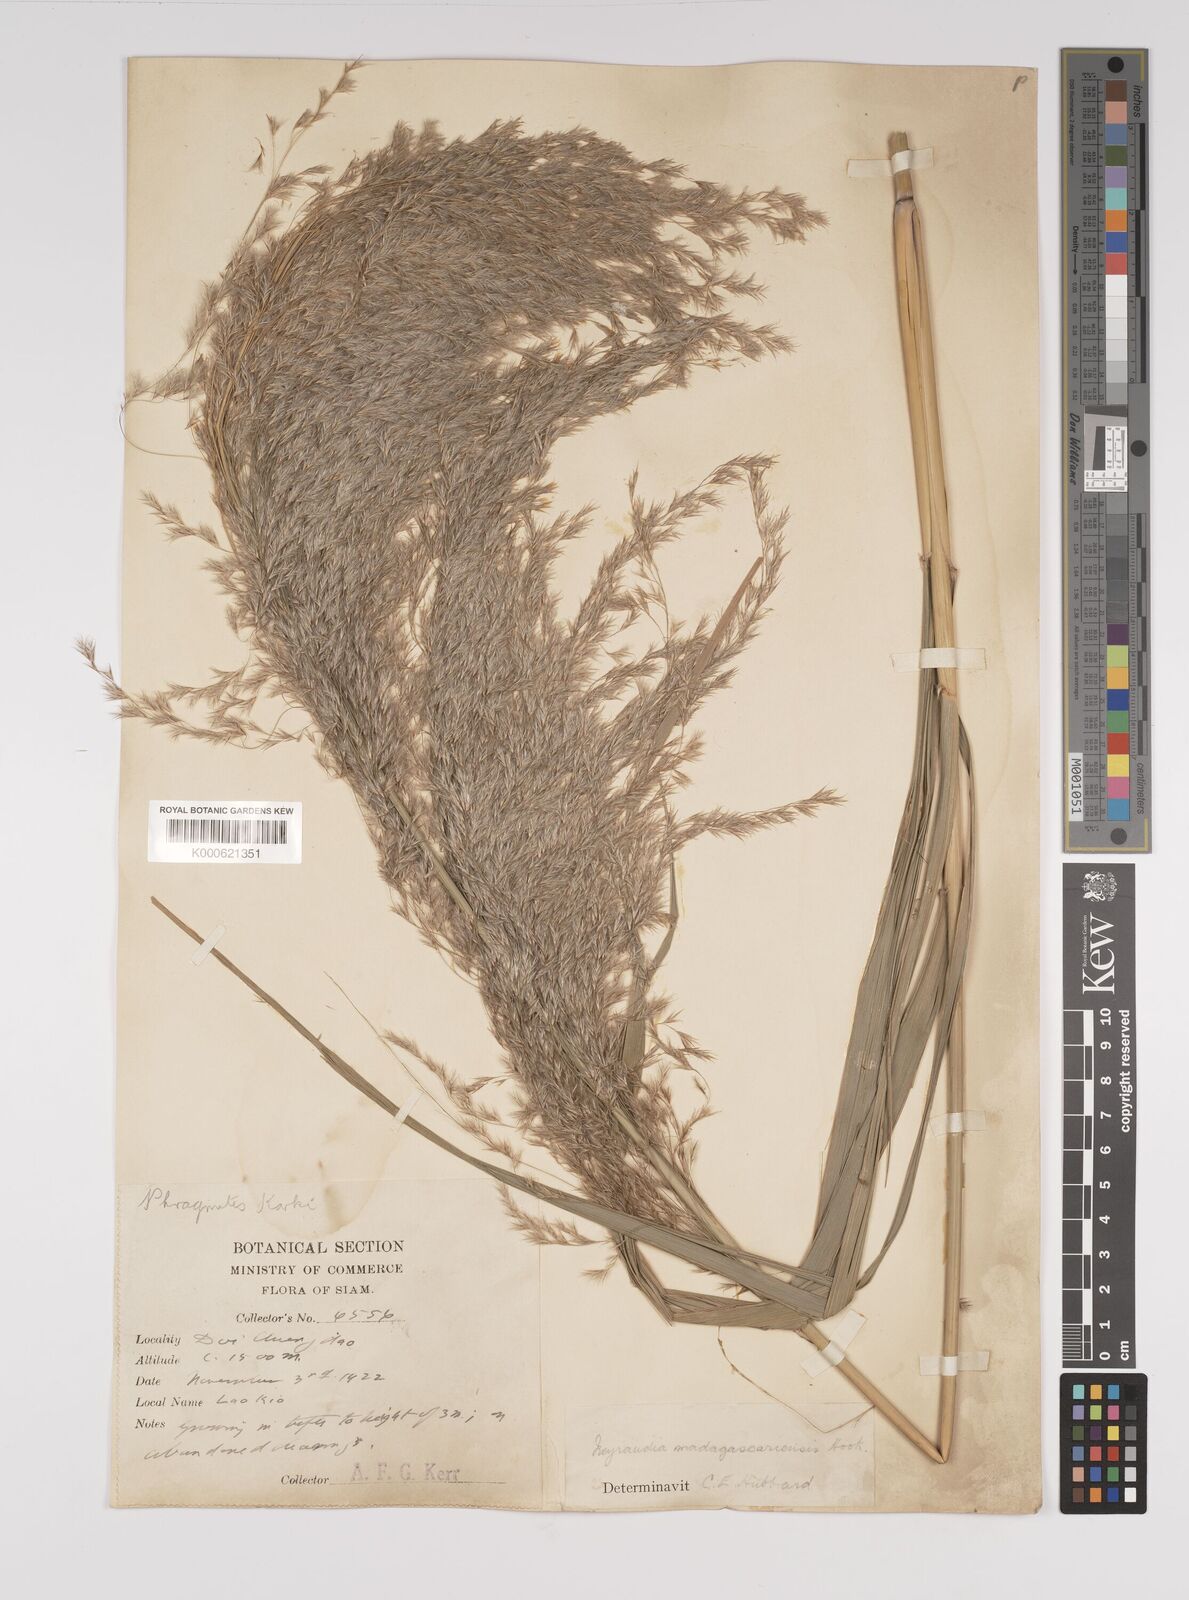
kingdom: Plantae
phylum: Tracheophyta
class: Liliopsida
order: Poales
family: Poaceae
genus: Neyraudia
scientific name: Neyraudia reynaudiana
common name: Silkreed
